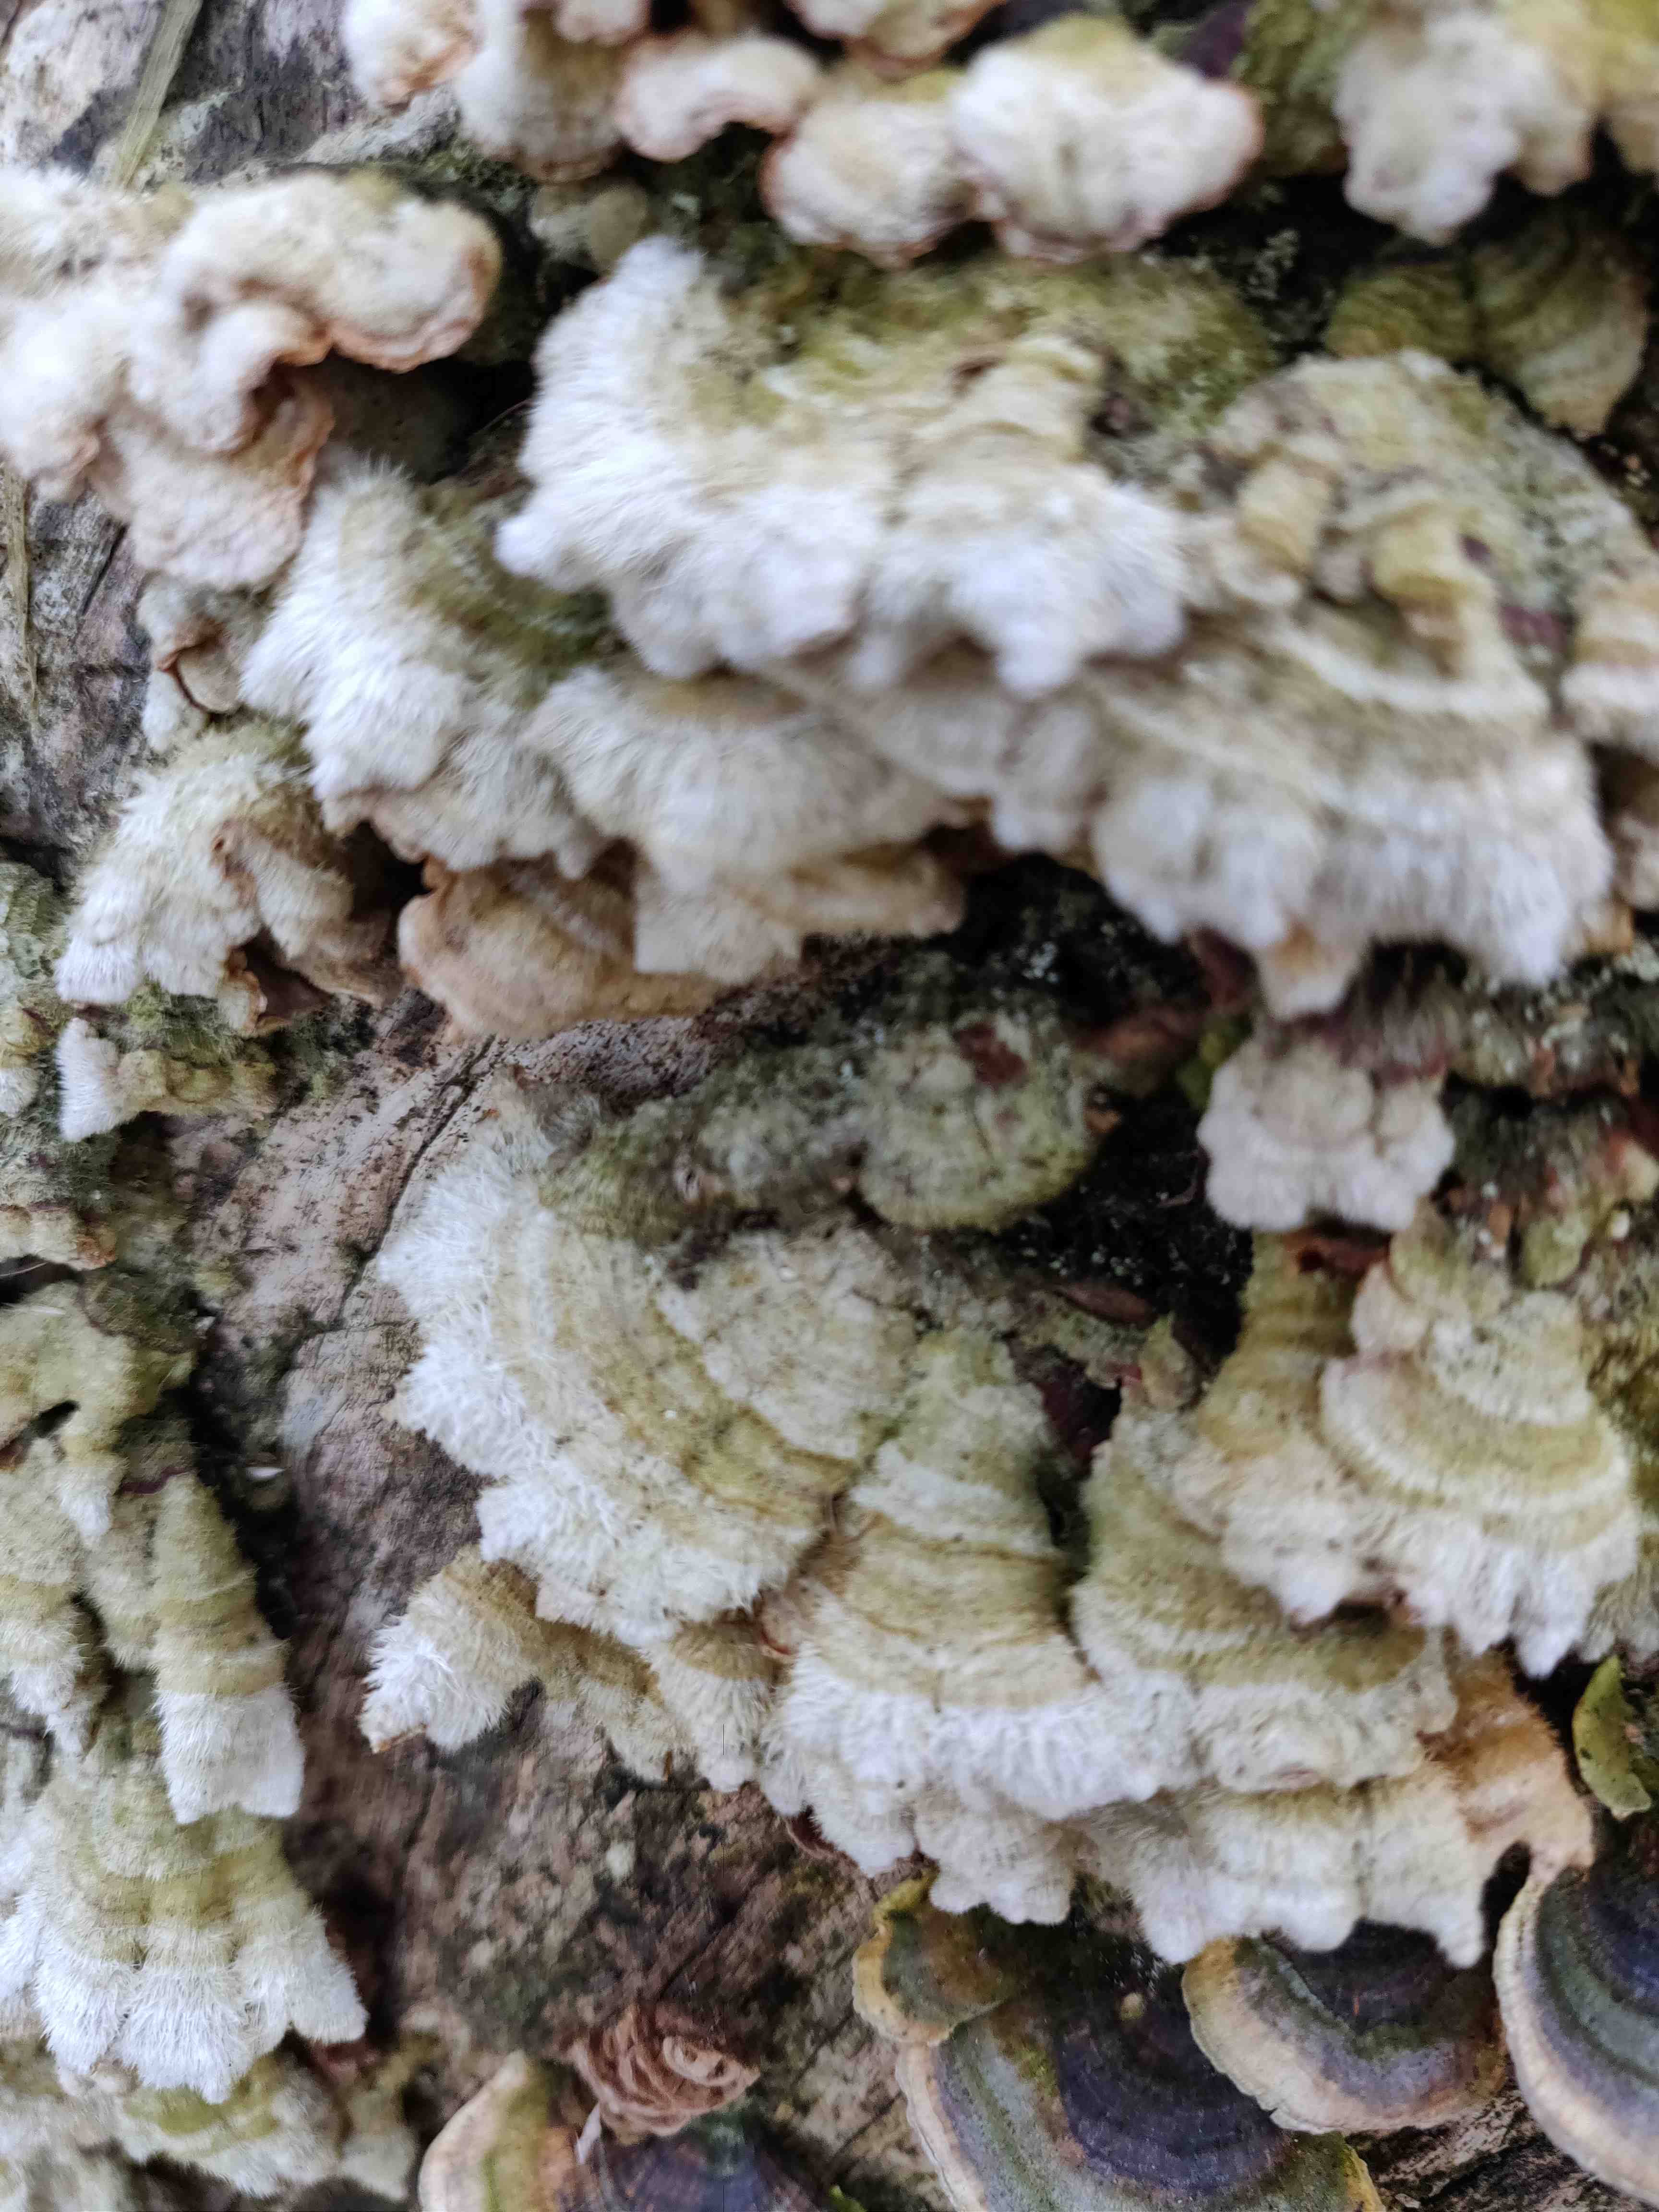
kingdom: Fungi
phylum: Basidiomycota
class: Agaricomycetes
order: Polyporales
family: Polyporaceae
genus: Trametes
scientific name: Trametes hirsuta
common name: håret læderporesvamp
